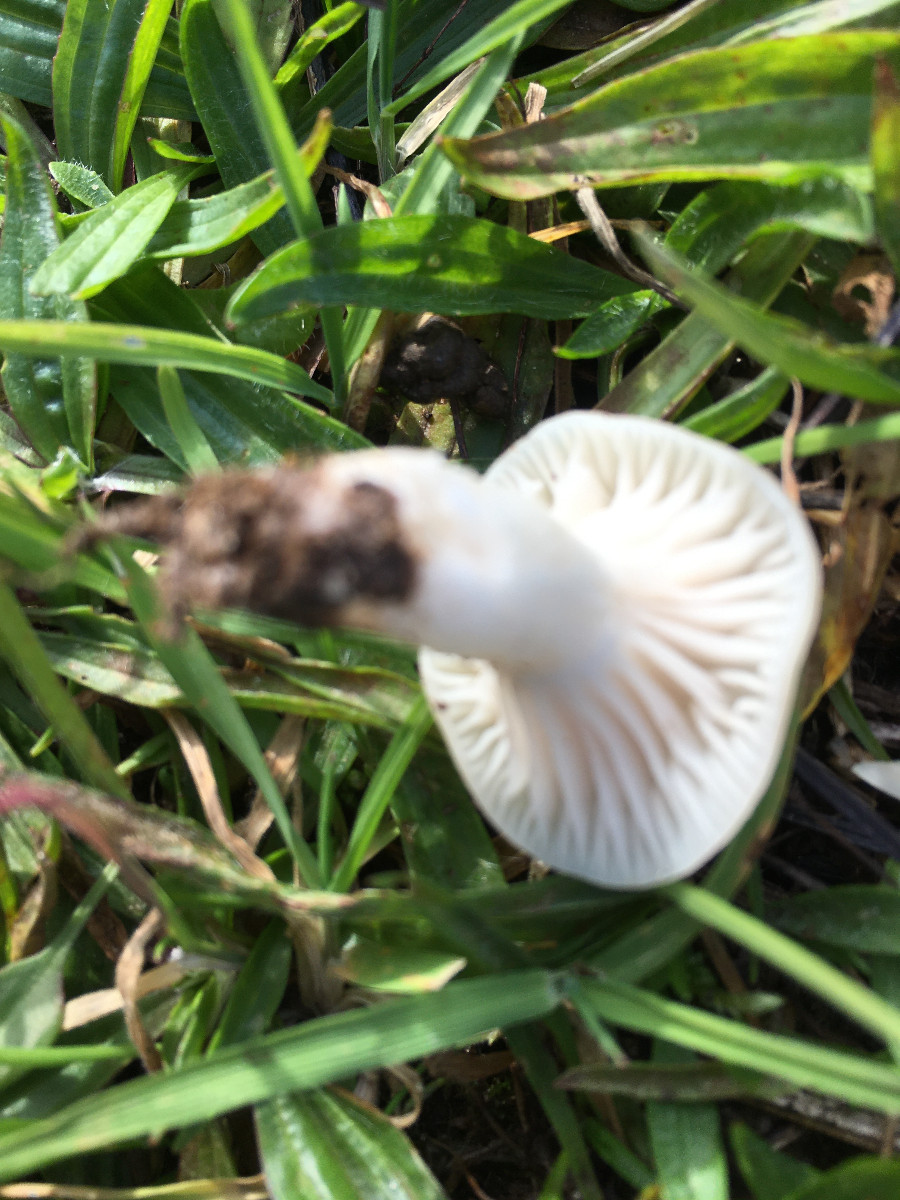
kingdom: Fungi
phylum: Basidiomycota
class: Agaricomycetes
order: Agaricales
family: Hygrophoraceae
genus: Cuphophyllus
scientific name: Cuphophyllus virgineus
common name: snehvid vokshat
